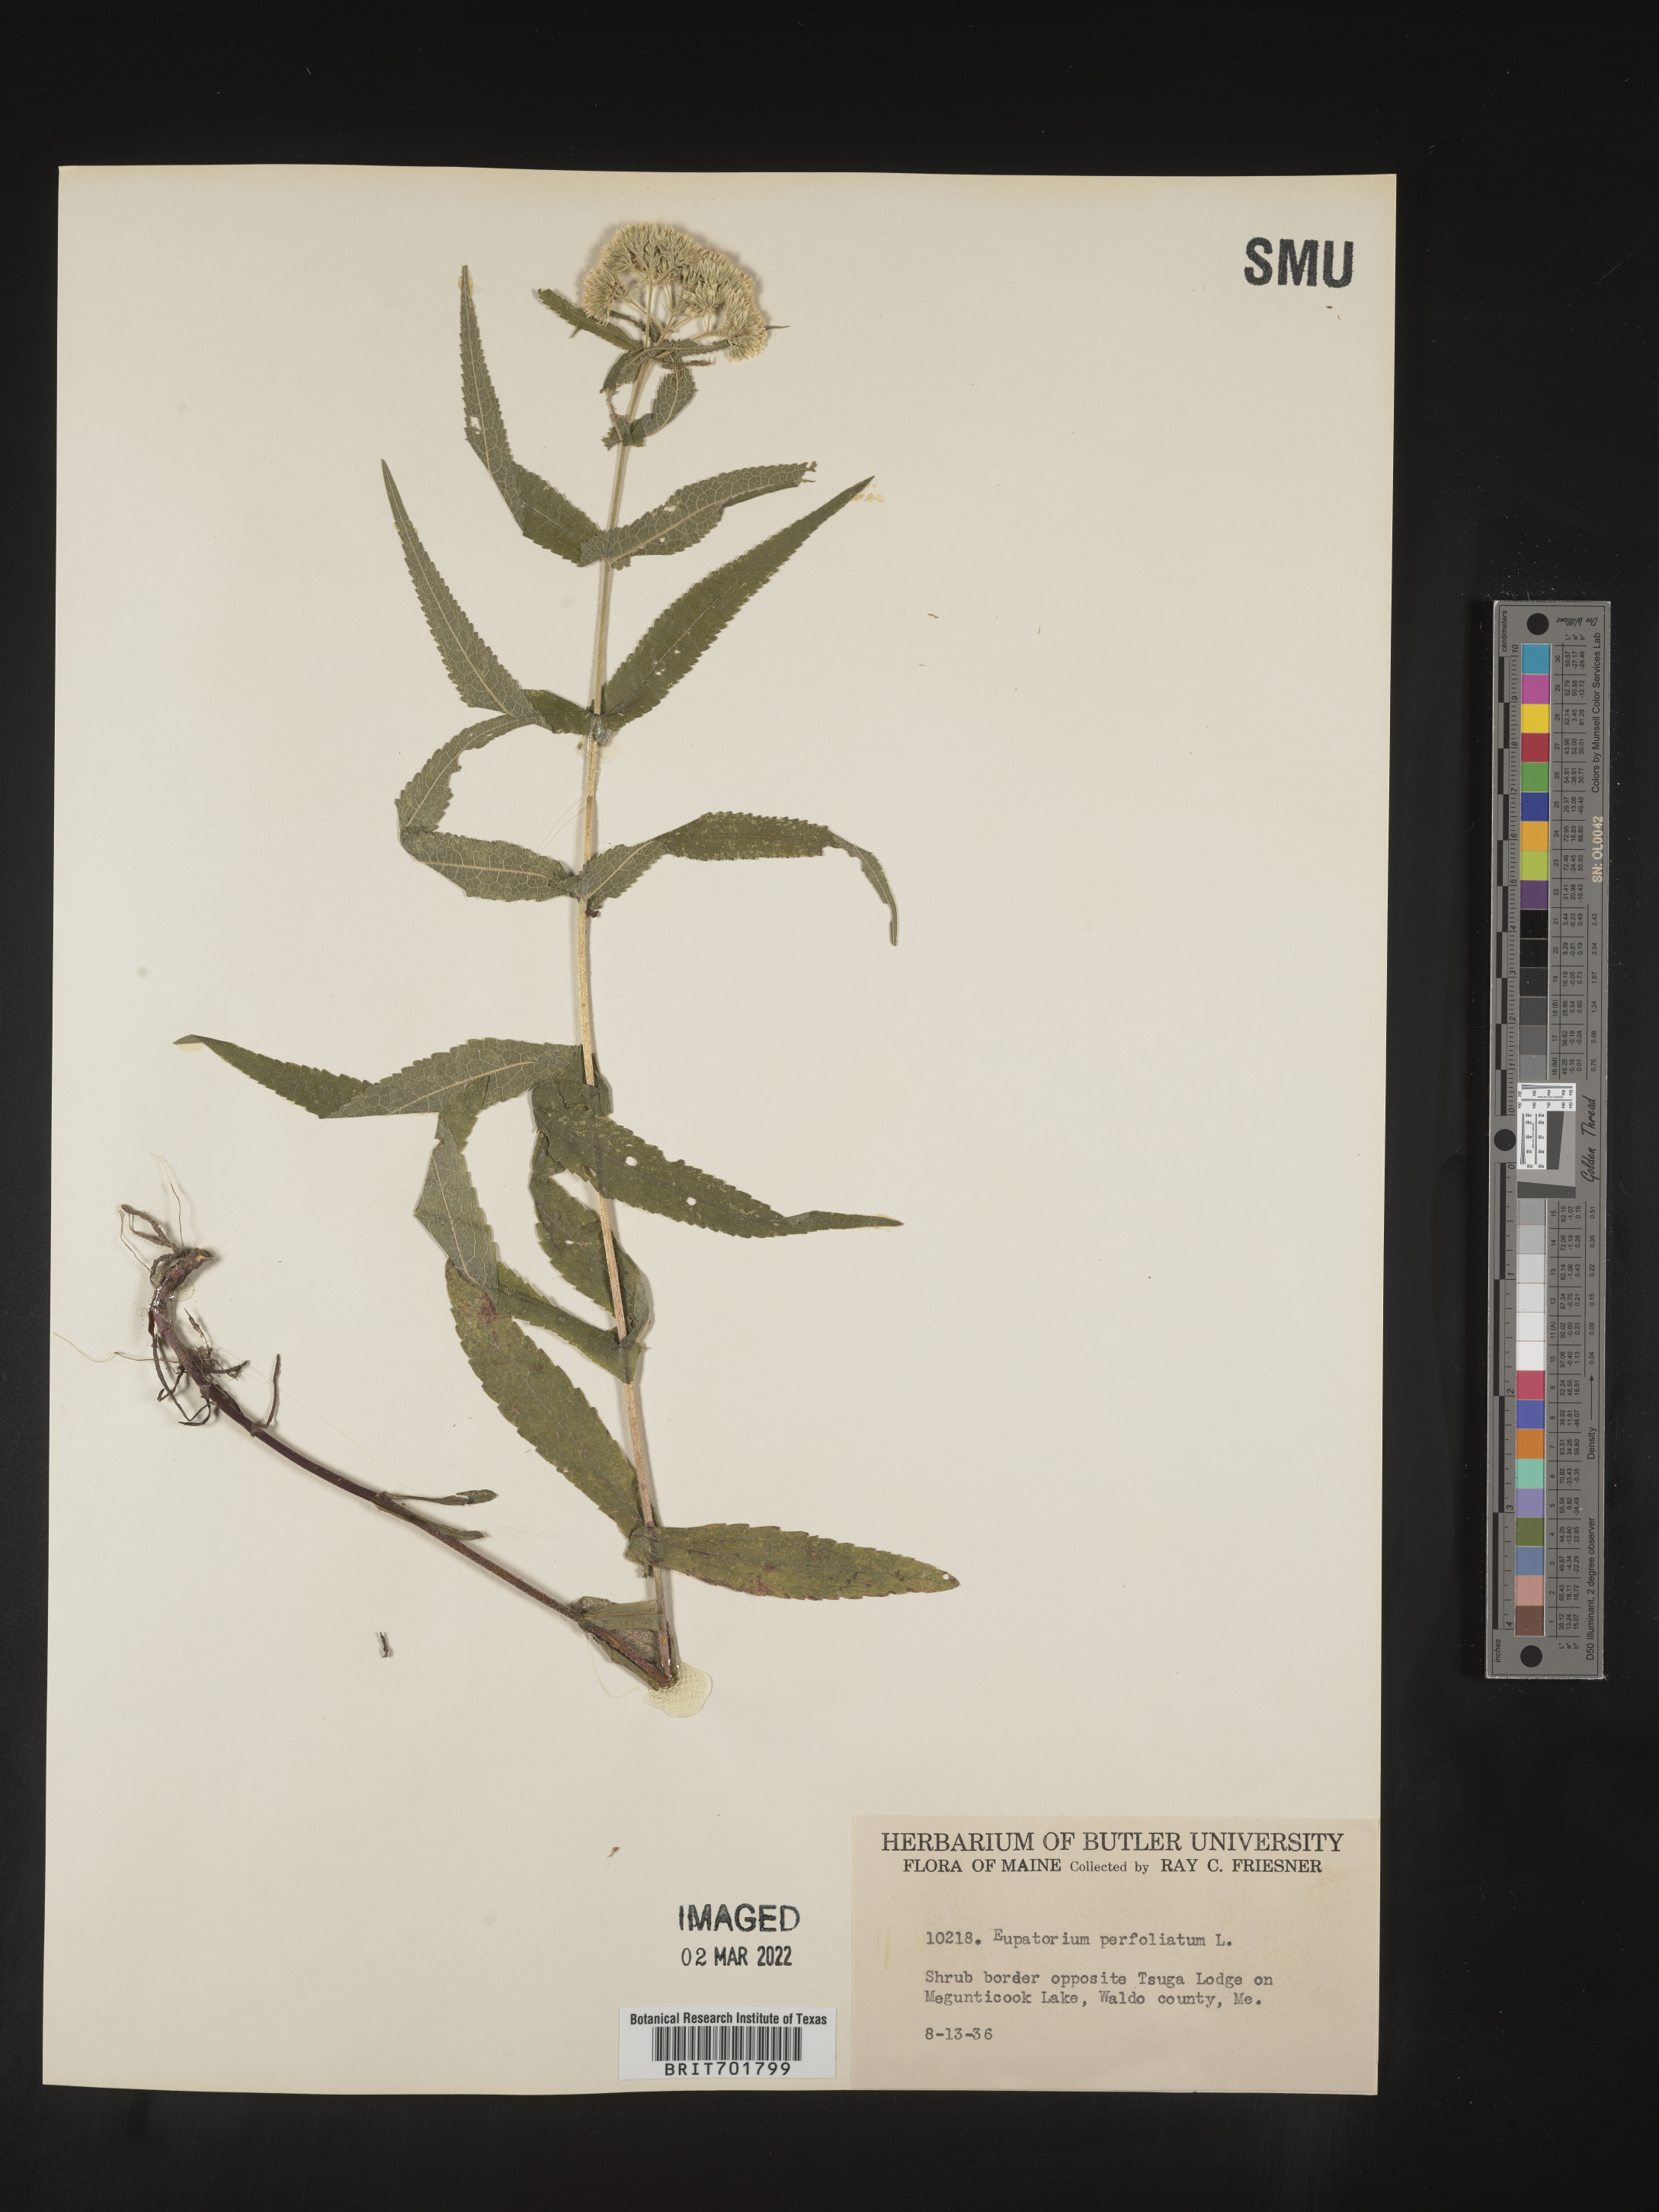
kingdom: Plantae
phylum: Tracheophyta
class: Magnoliopsida
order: Asterales
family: Asteraceae
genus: Eupatorium
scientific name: Eupatorium perfoliatum
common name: Boneset
